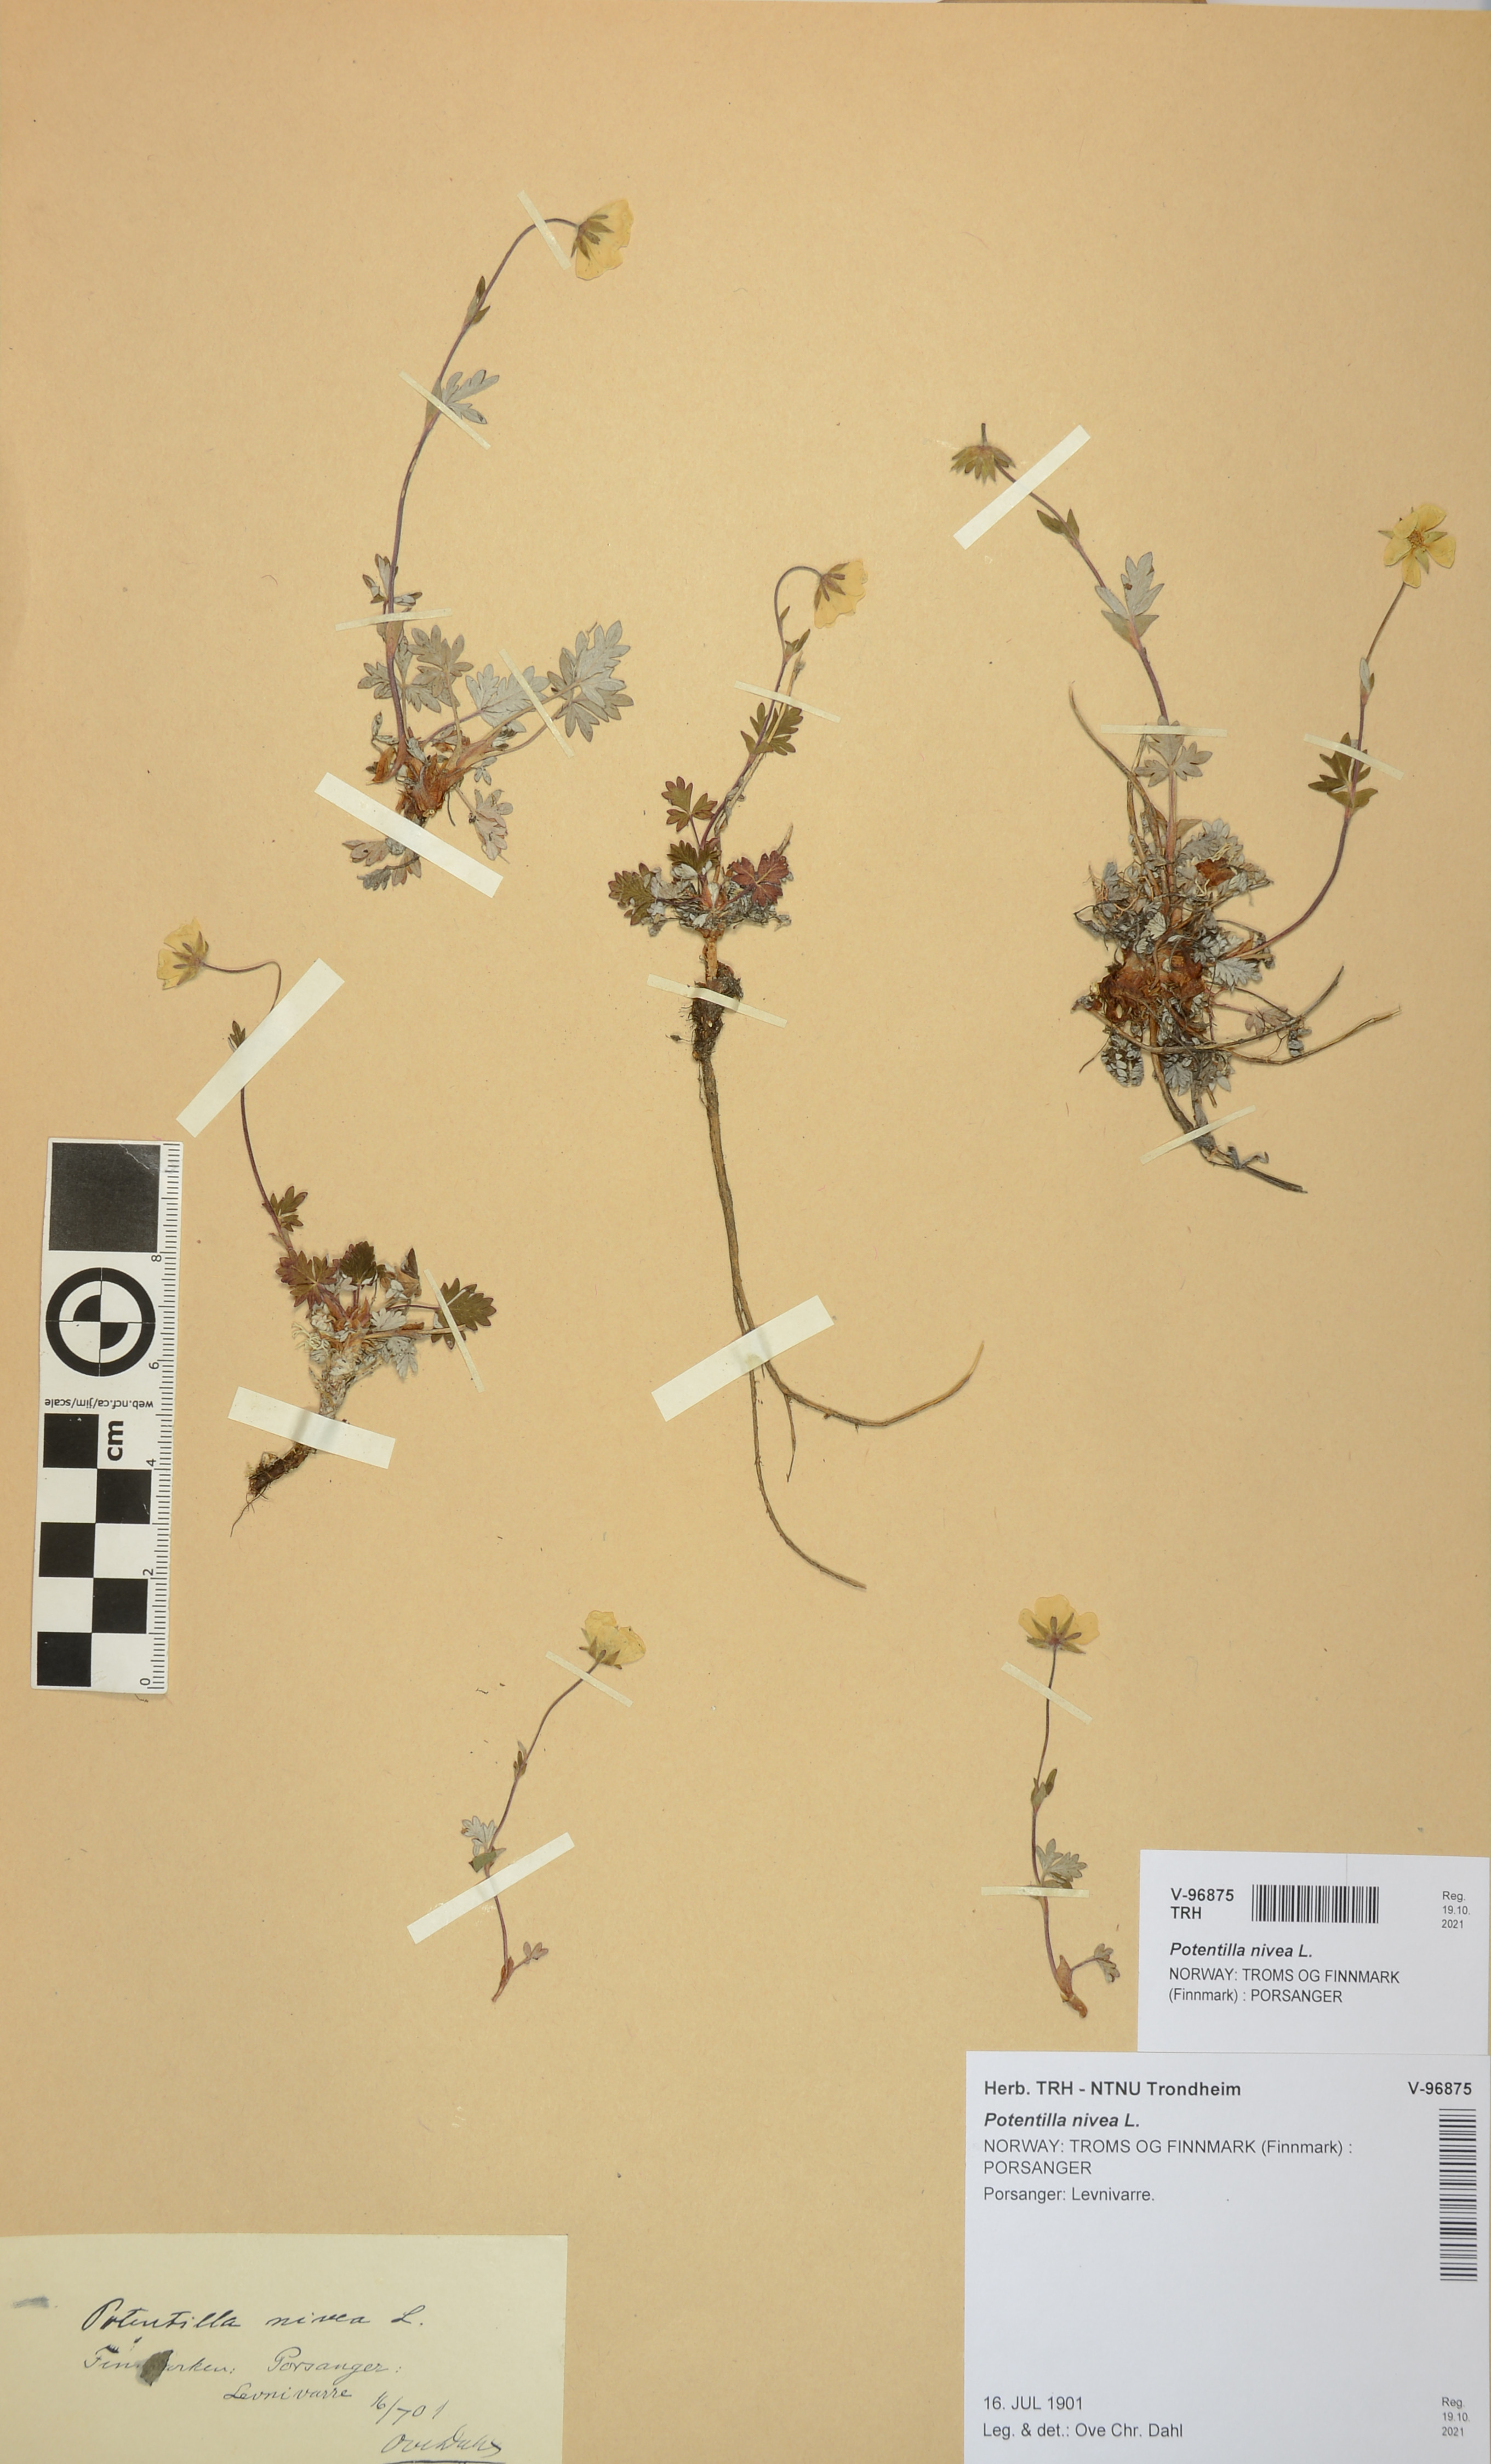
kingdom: Plantae
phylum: Tracheophyta
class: Magnoliopsida
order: Rosales
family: Rosaceae
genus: Potentilla
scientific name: Potentilla nivea
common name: Snow cinquefoil
